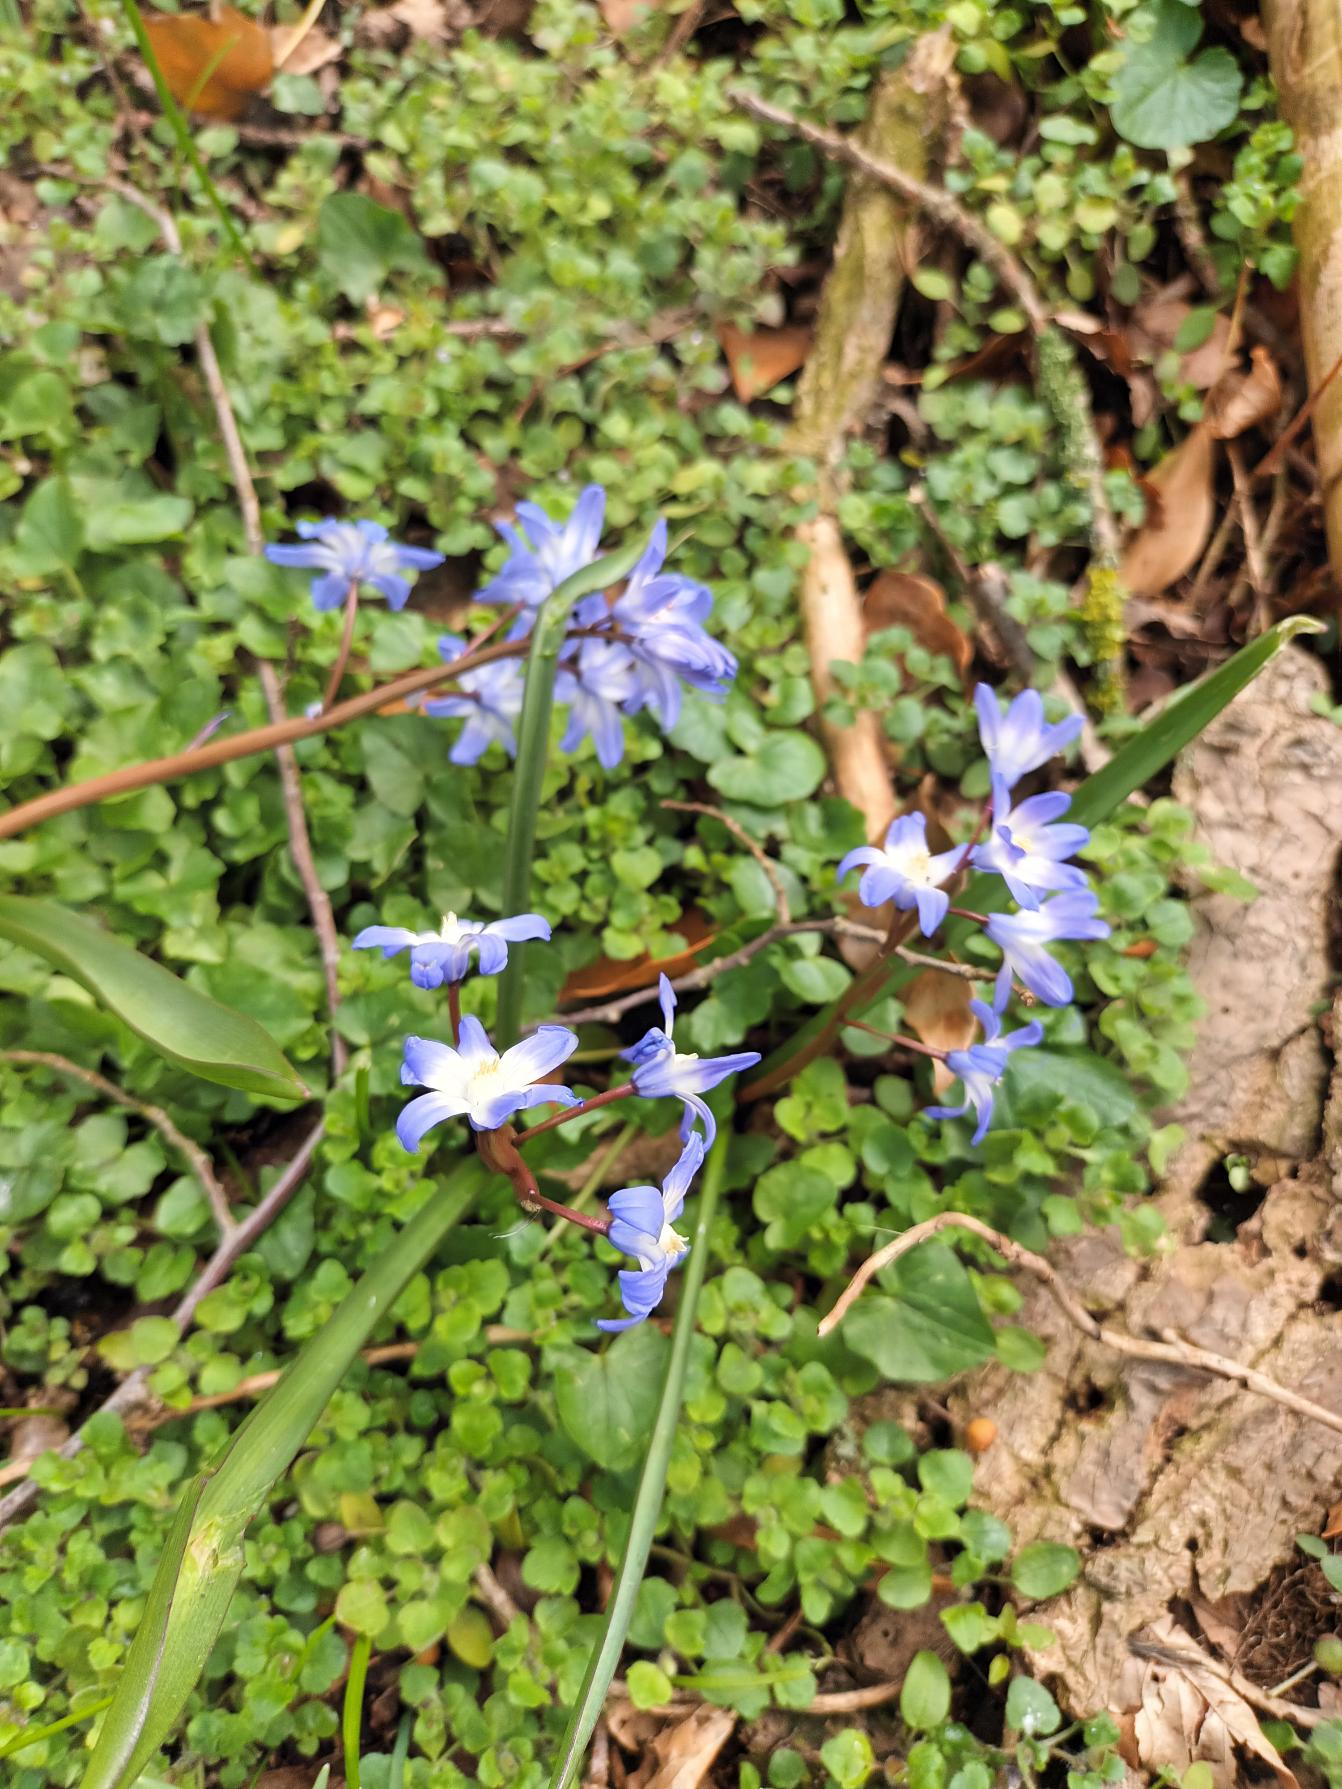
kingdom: Plantae
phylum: Tracheophyta
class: Liliopsida
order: Asparagales
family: Asparagaceae
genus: Scilla
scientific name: Scilla forbesii
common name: Almindelig snepryd
